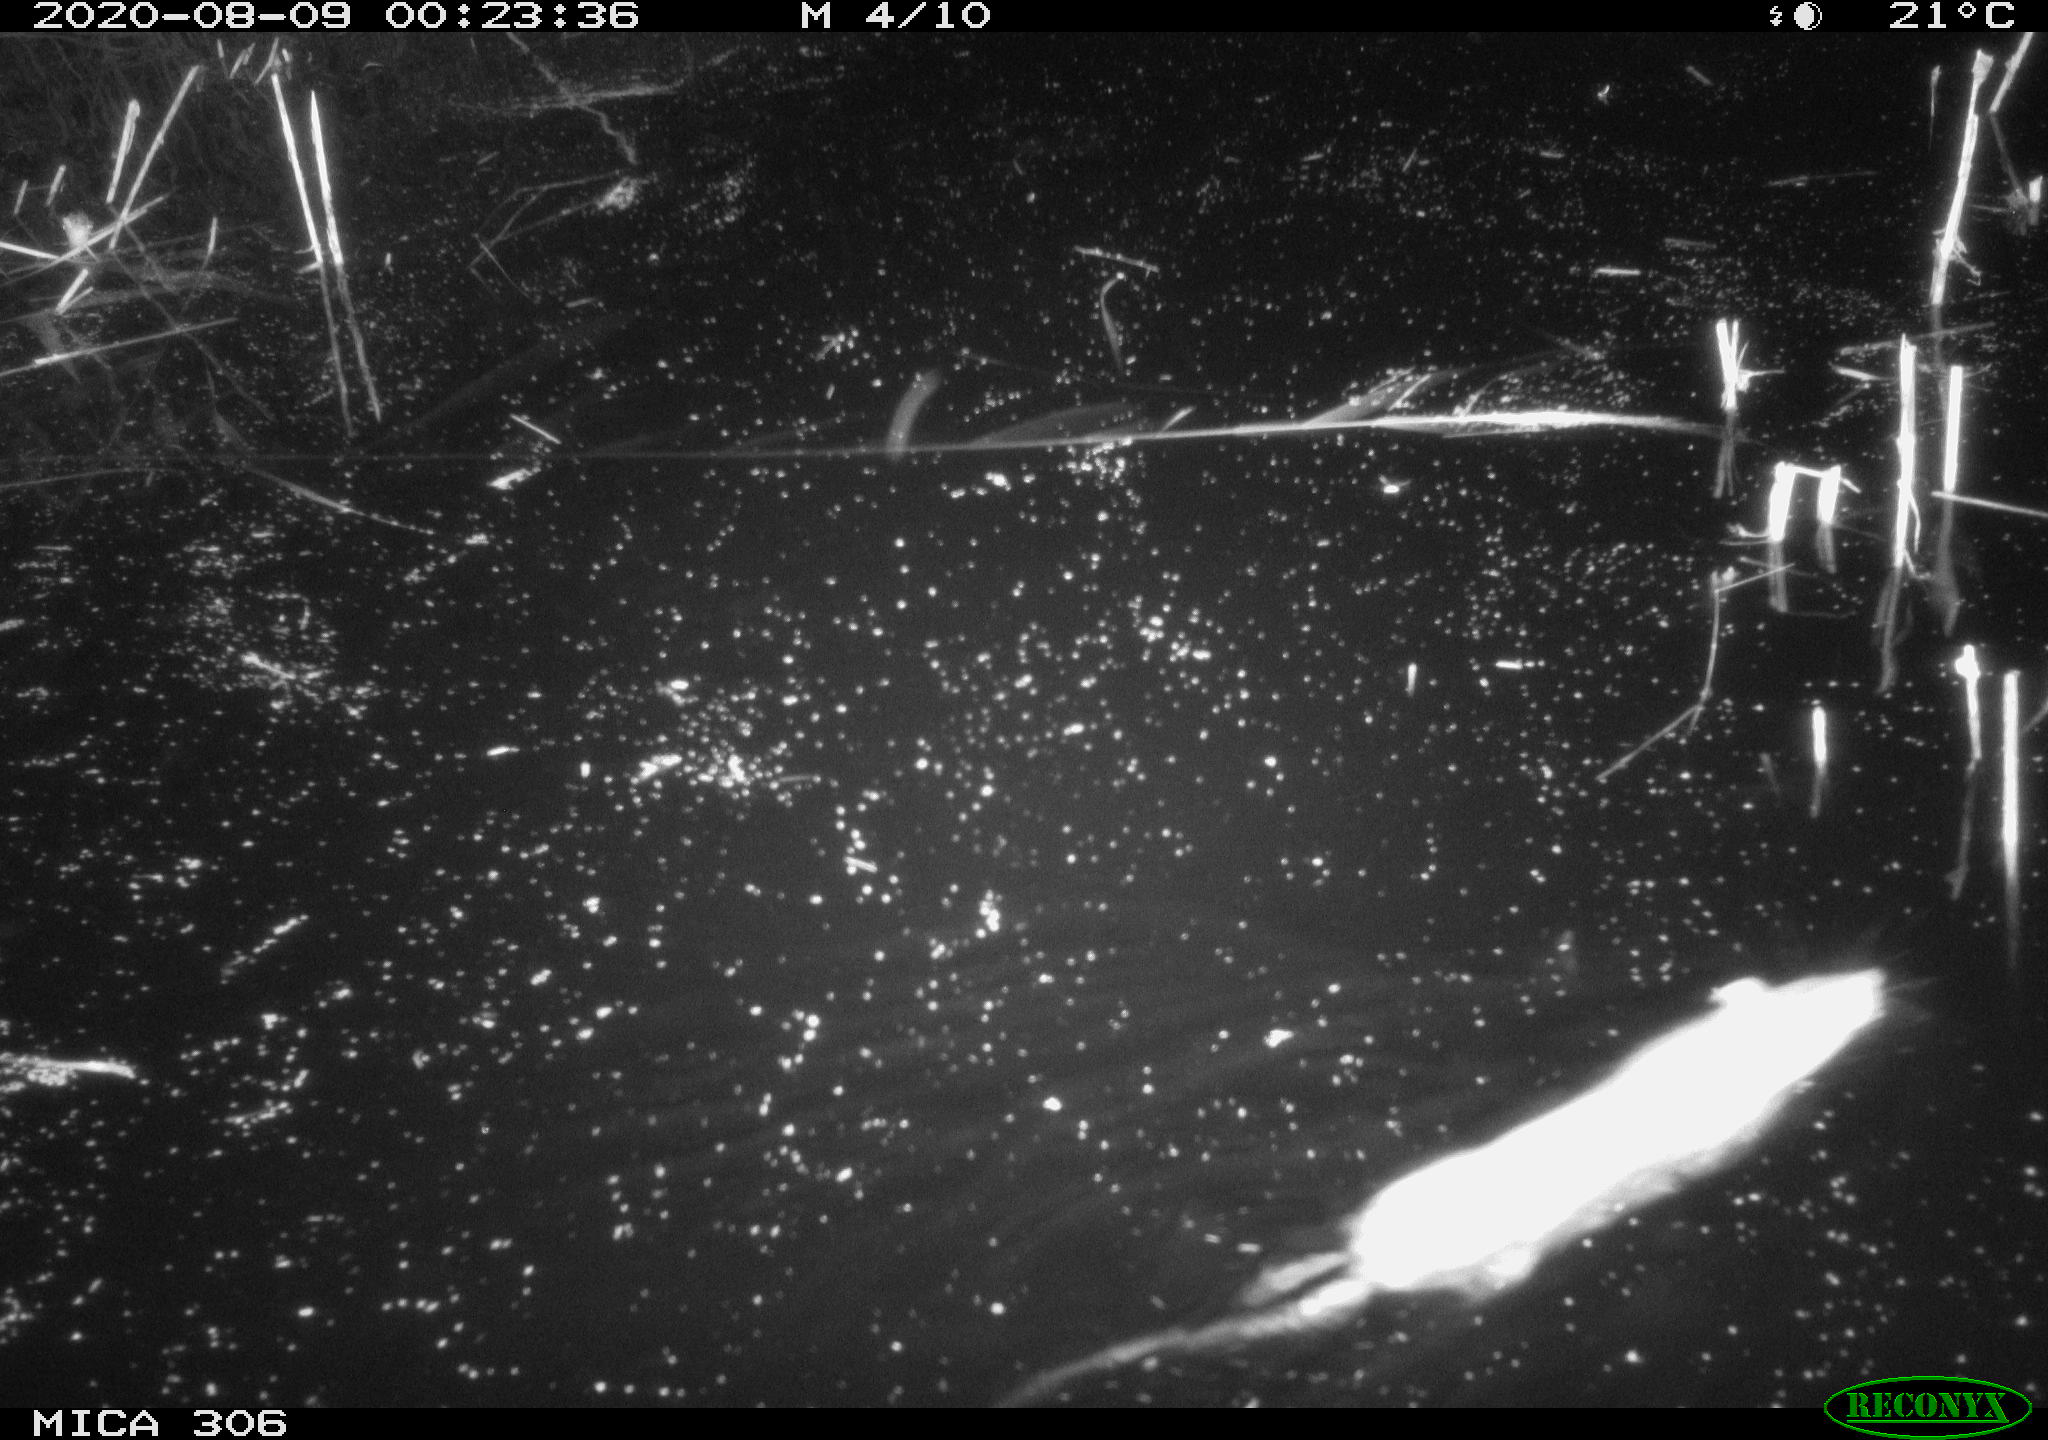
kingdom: Animalia
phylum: Chordata
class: Mammalia
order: Rodentia
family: Muridae
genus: Rattus
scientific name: Rattus norvegicus
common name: Brown rat
